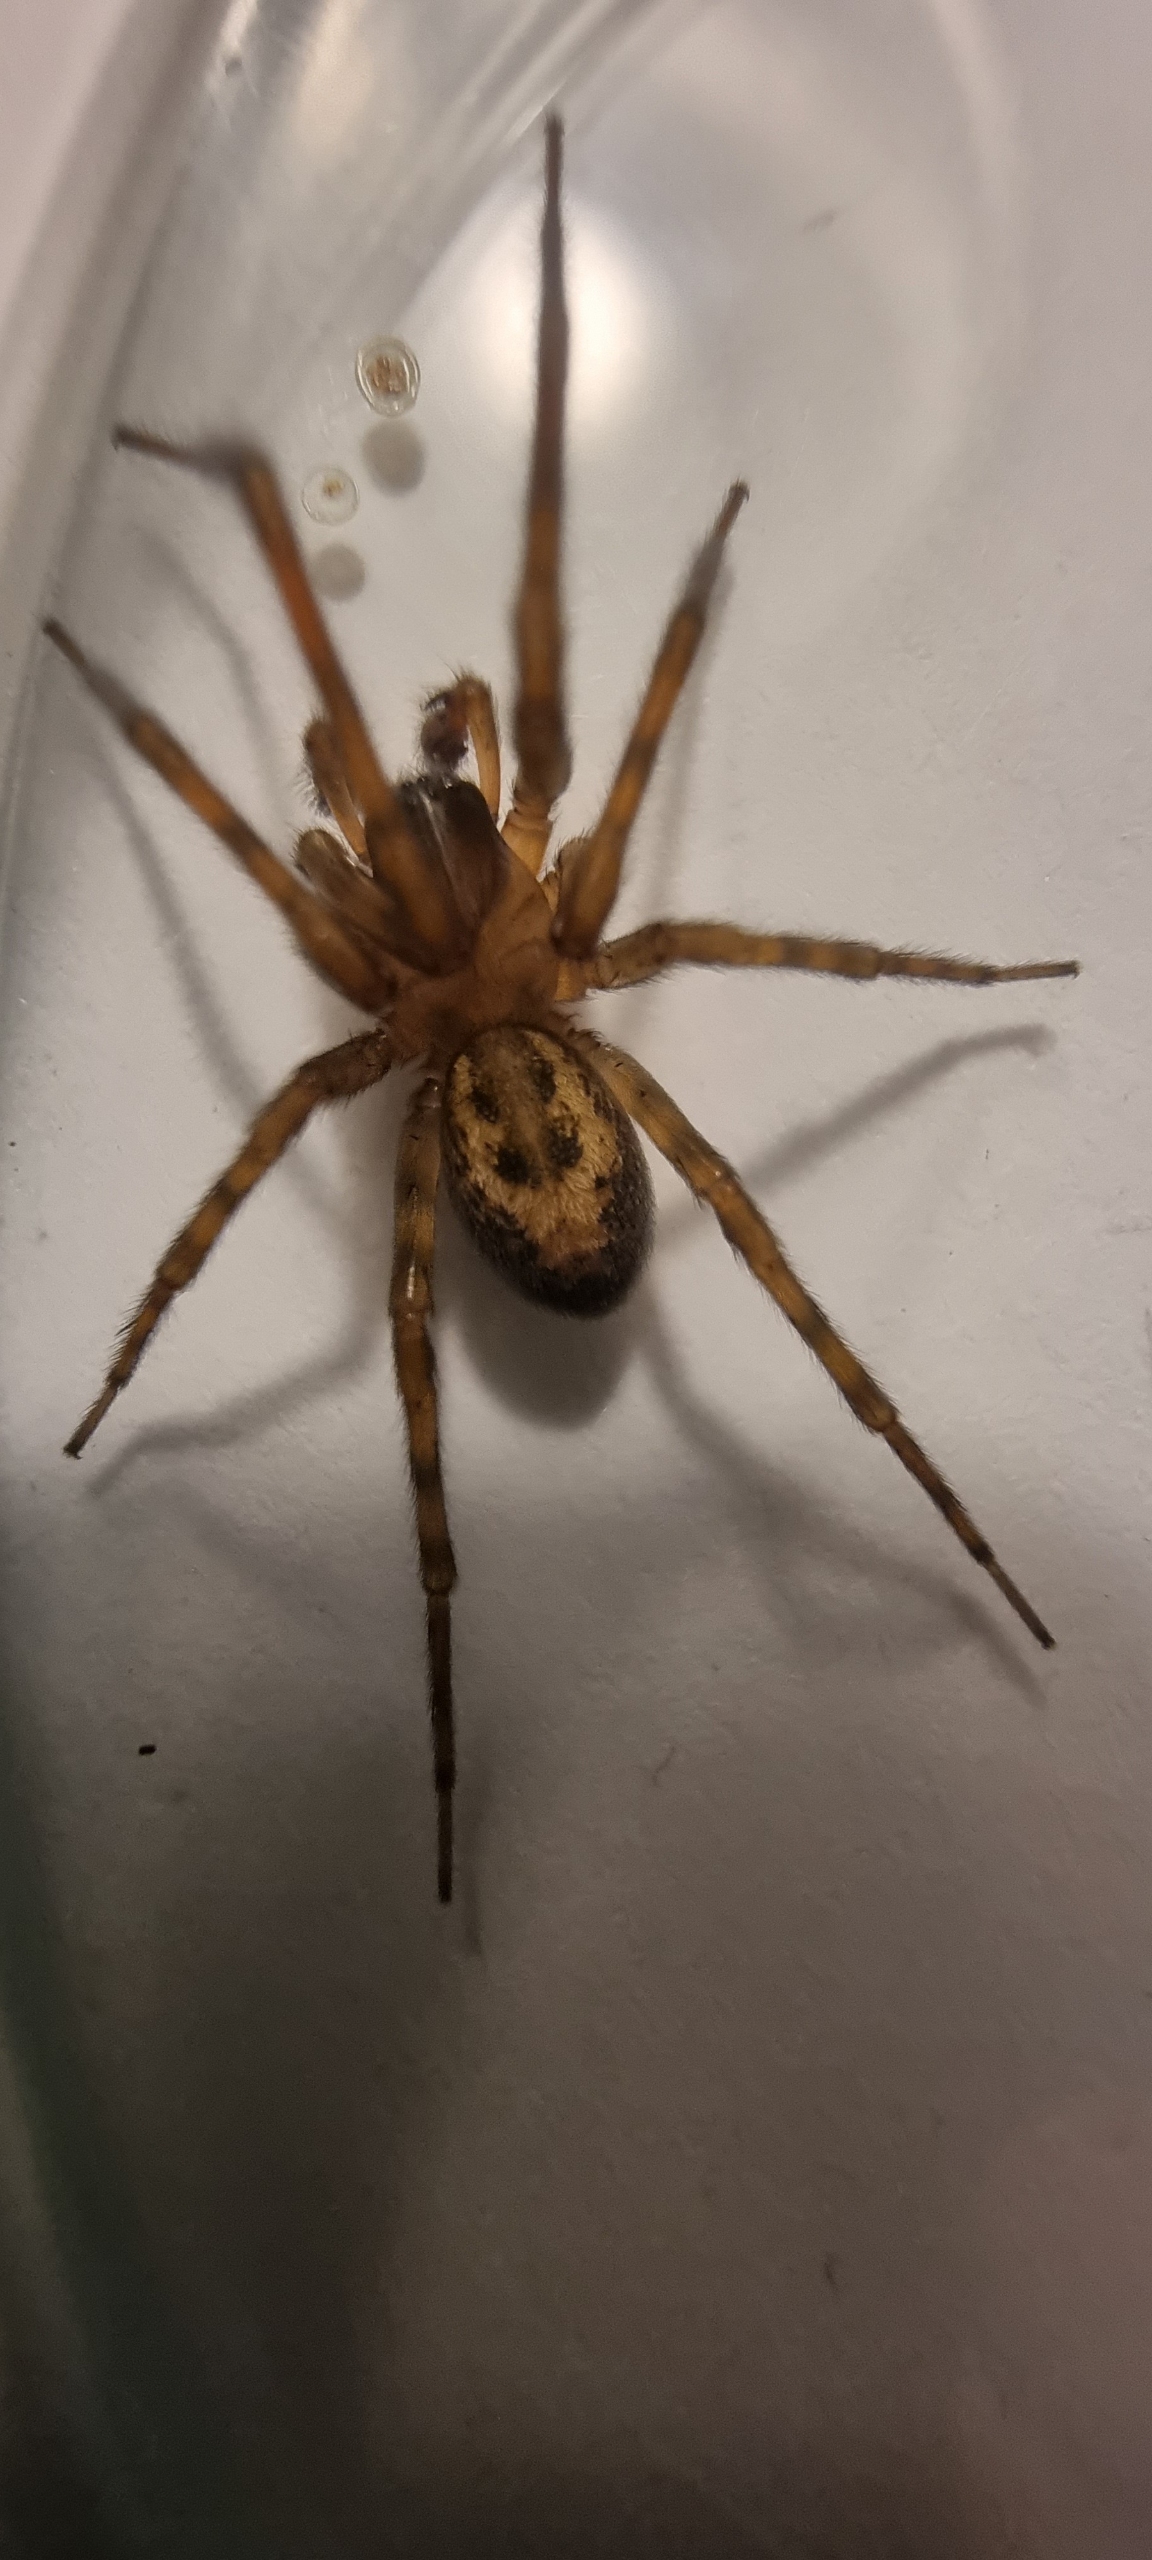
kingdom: Animalia
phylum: Arthropoda
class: Arachnida
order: Araneae
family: Amaurobiidae
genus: Amaurobius
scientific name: Amaurobius
